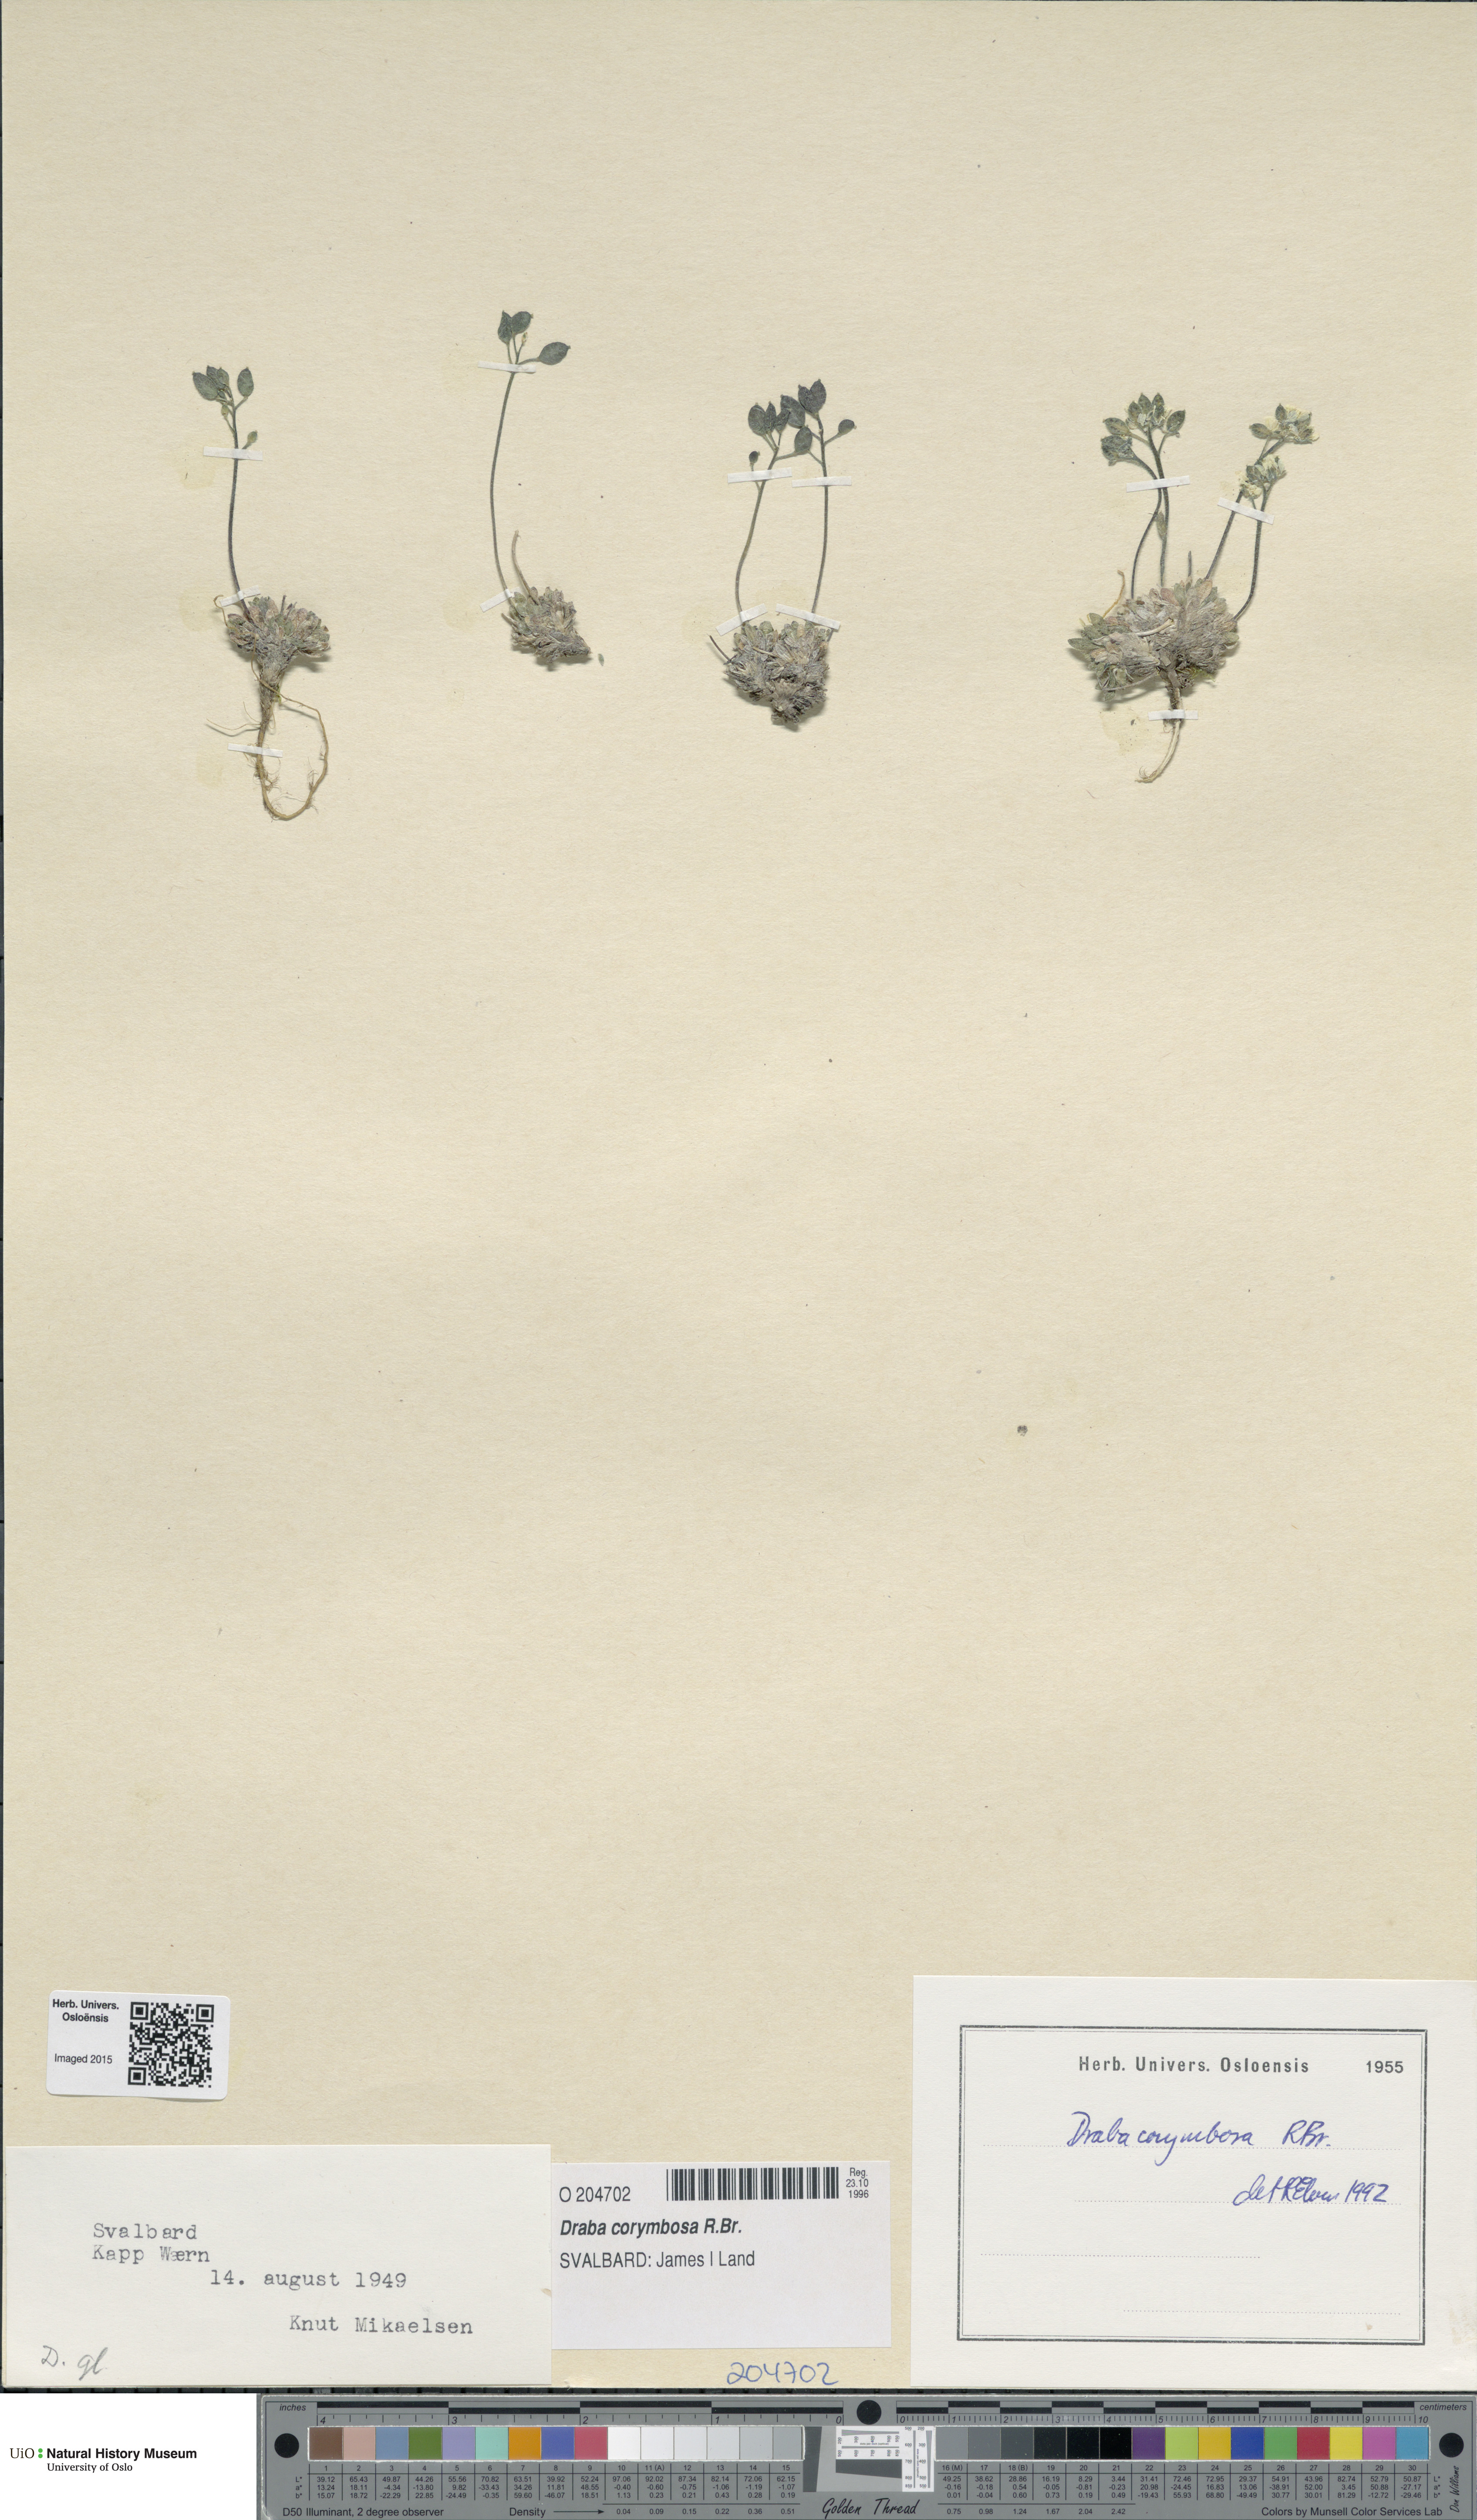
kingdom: Plantae
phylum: Tracheophyta
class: Magnoliopsida
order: Brassicales
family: Brassicaceae
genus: Draba
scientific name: Draba corymbosa
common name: Cushion whitlow-grass
